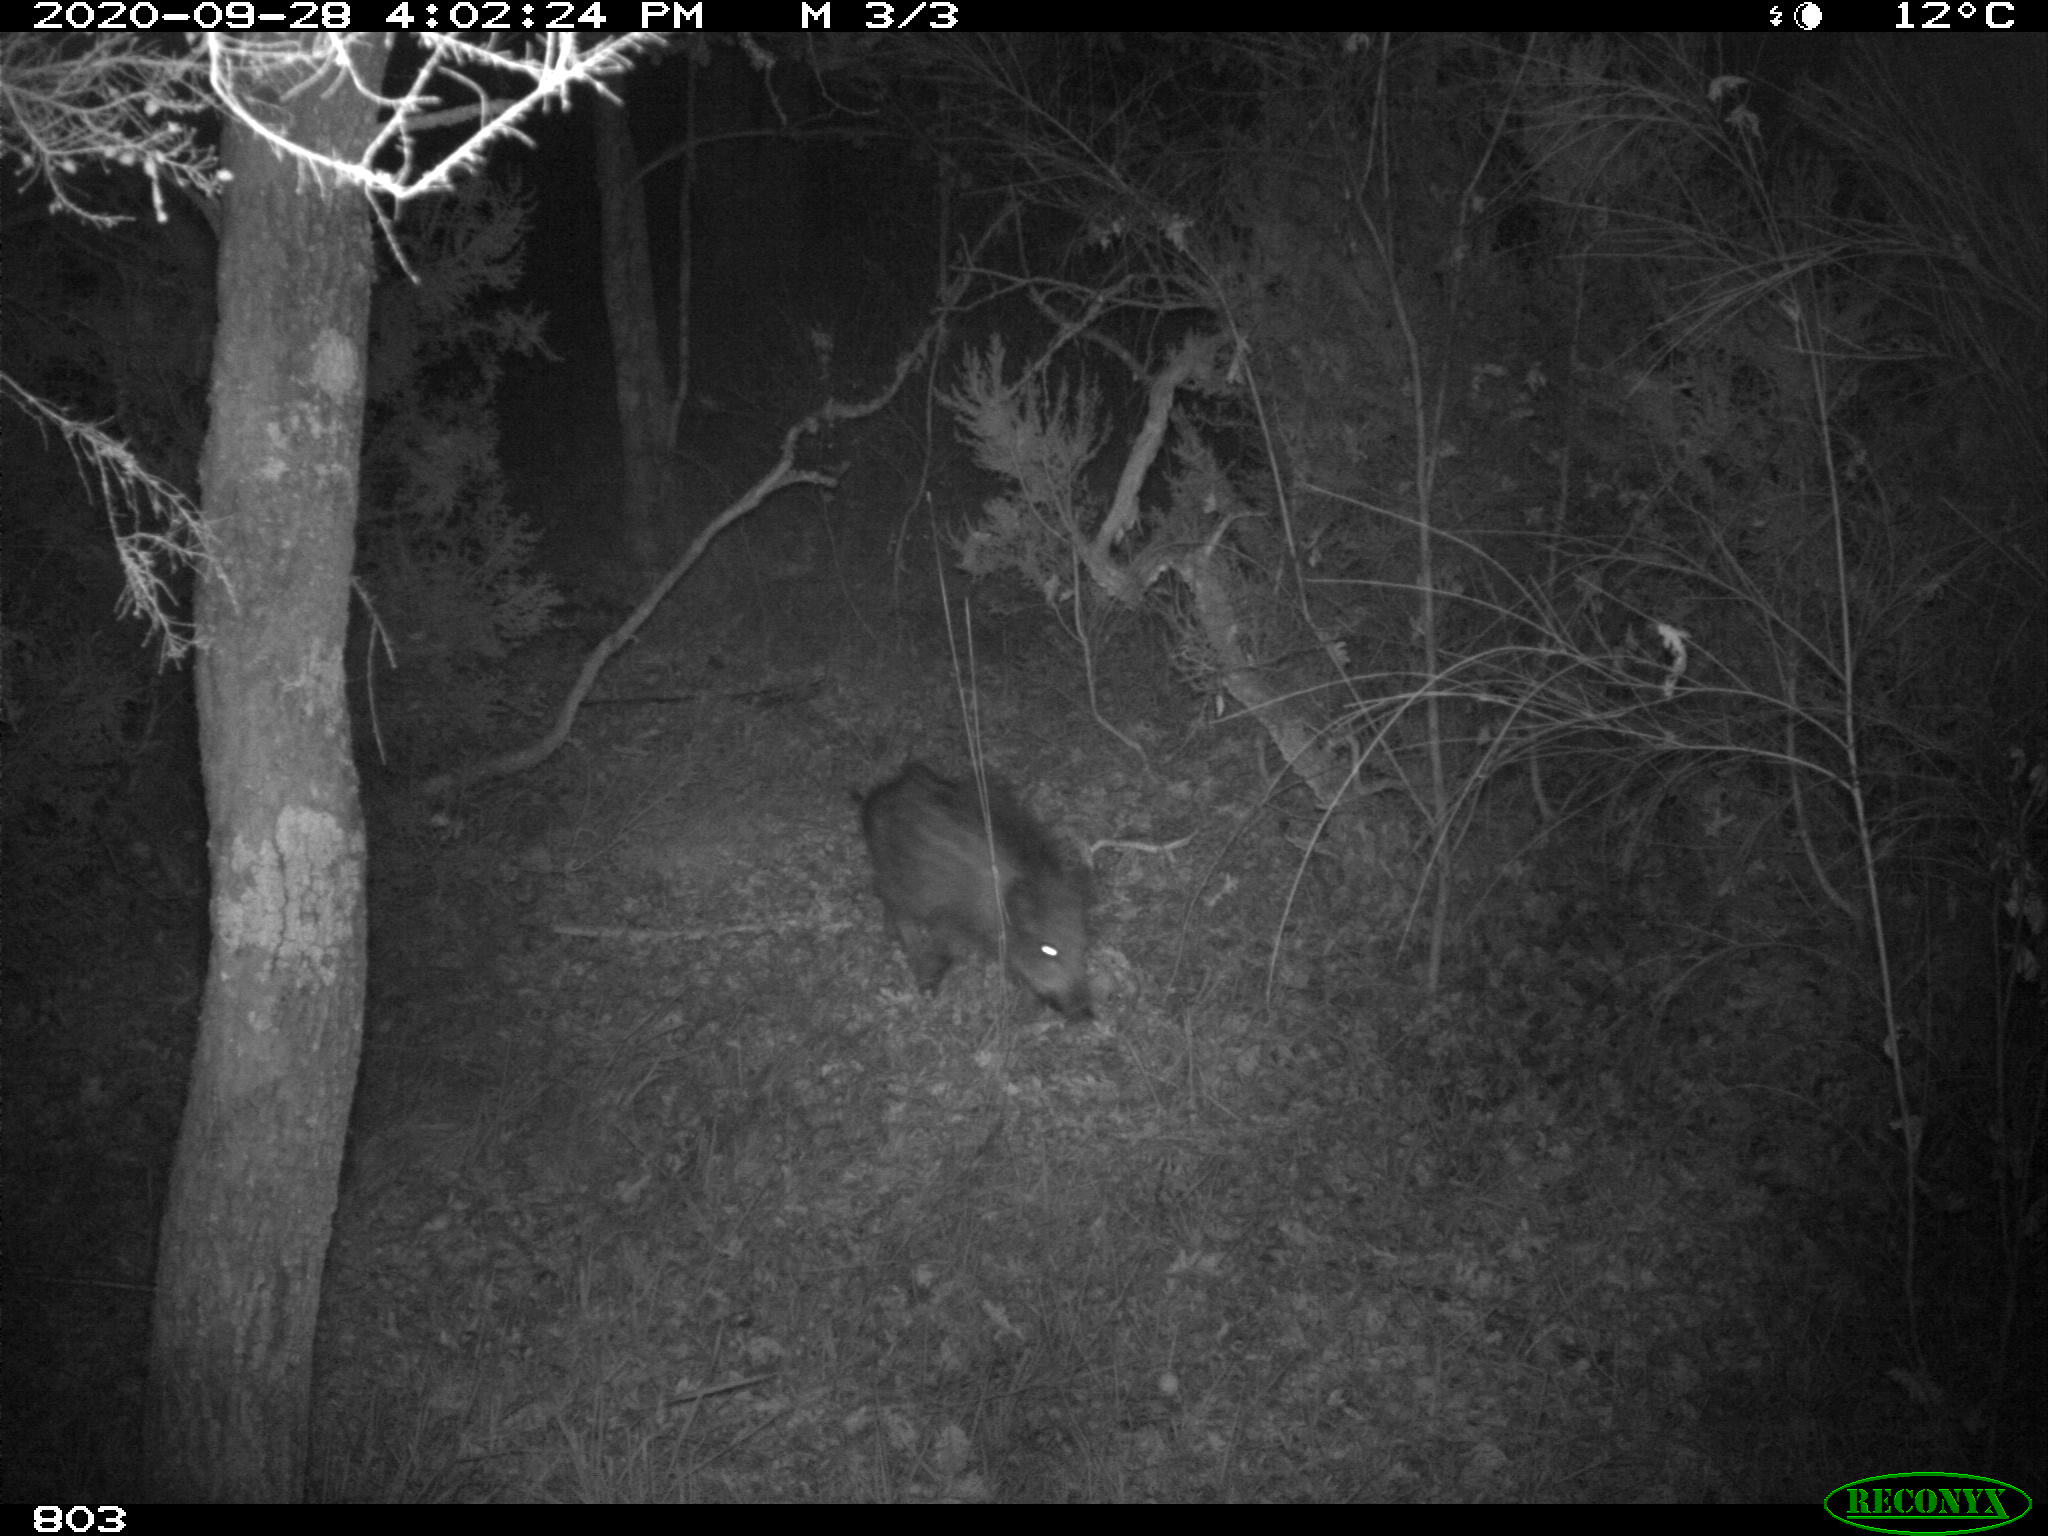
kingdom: Animalia
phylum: Chordata
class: Mammalia
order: Artiodactyla
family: Suidae
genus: Sus
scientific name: Sus scrofa
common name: Wild boar
